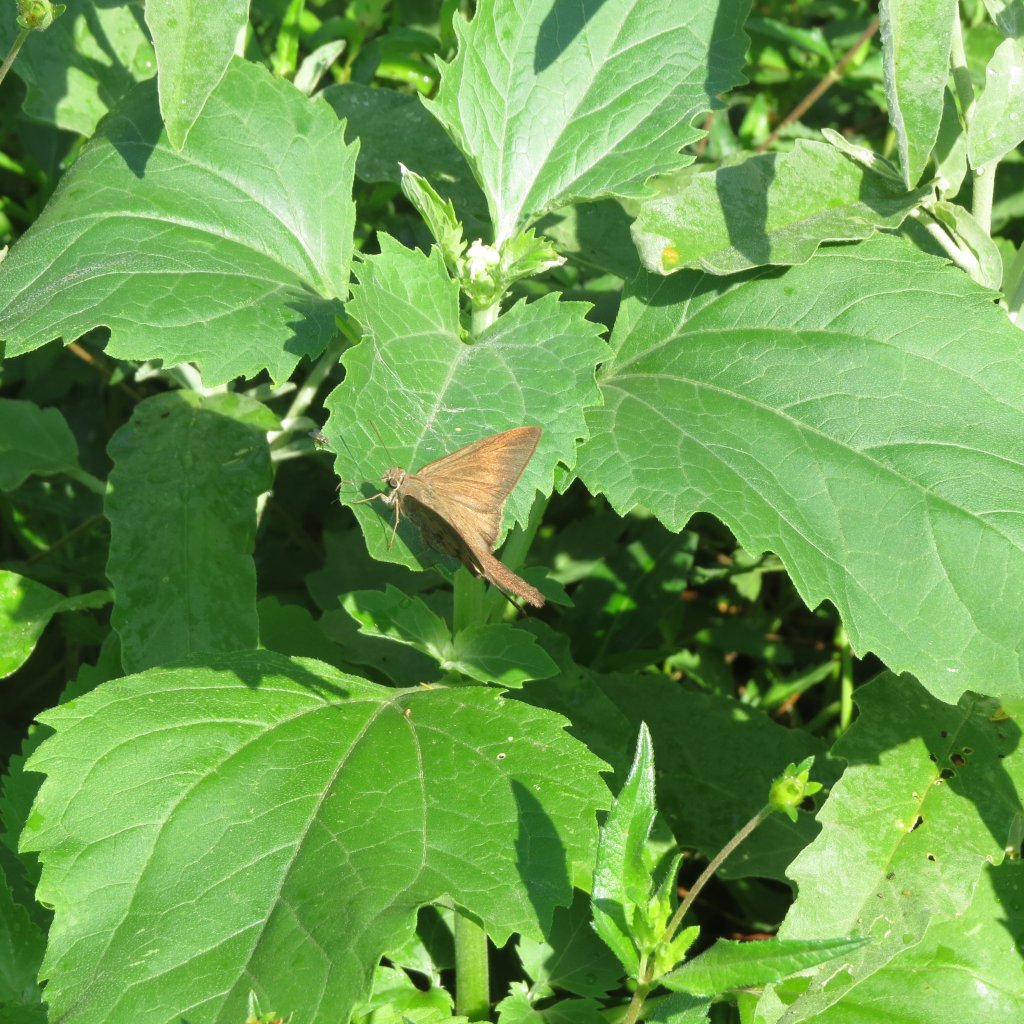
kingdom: Animalia
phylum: Arthropoda
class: Insecta
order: Lepidoptera
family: Hesperiidae
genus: Urbanus
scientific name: Urbanus procne
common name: Brown Longtail
